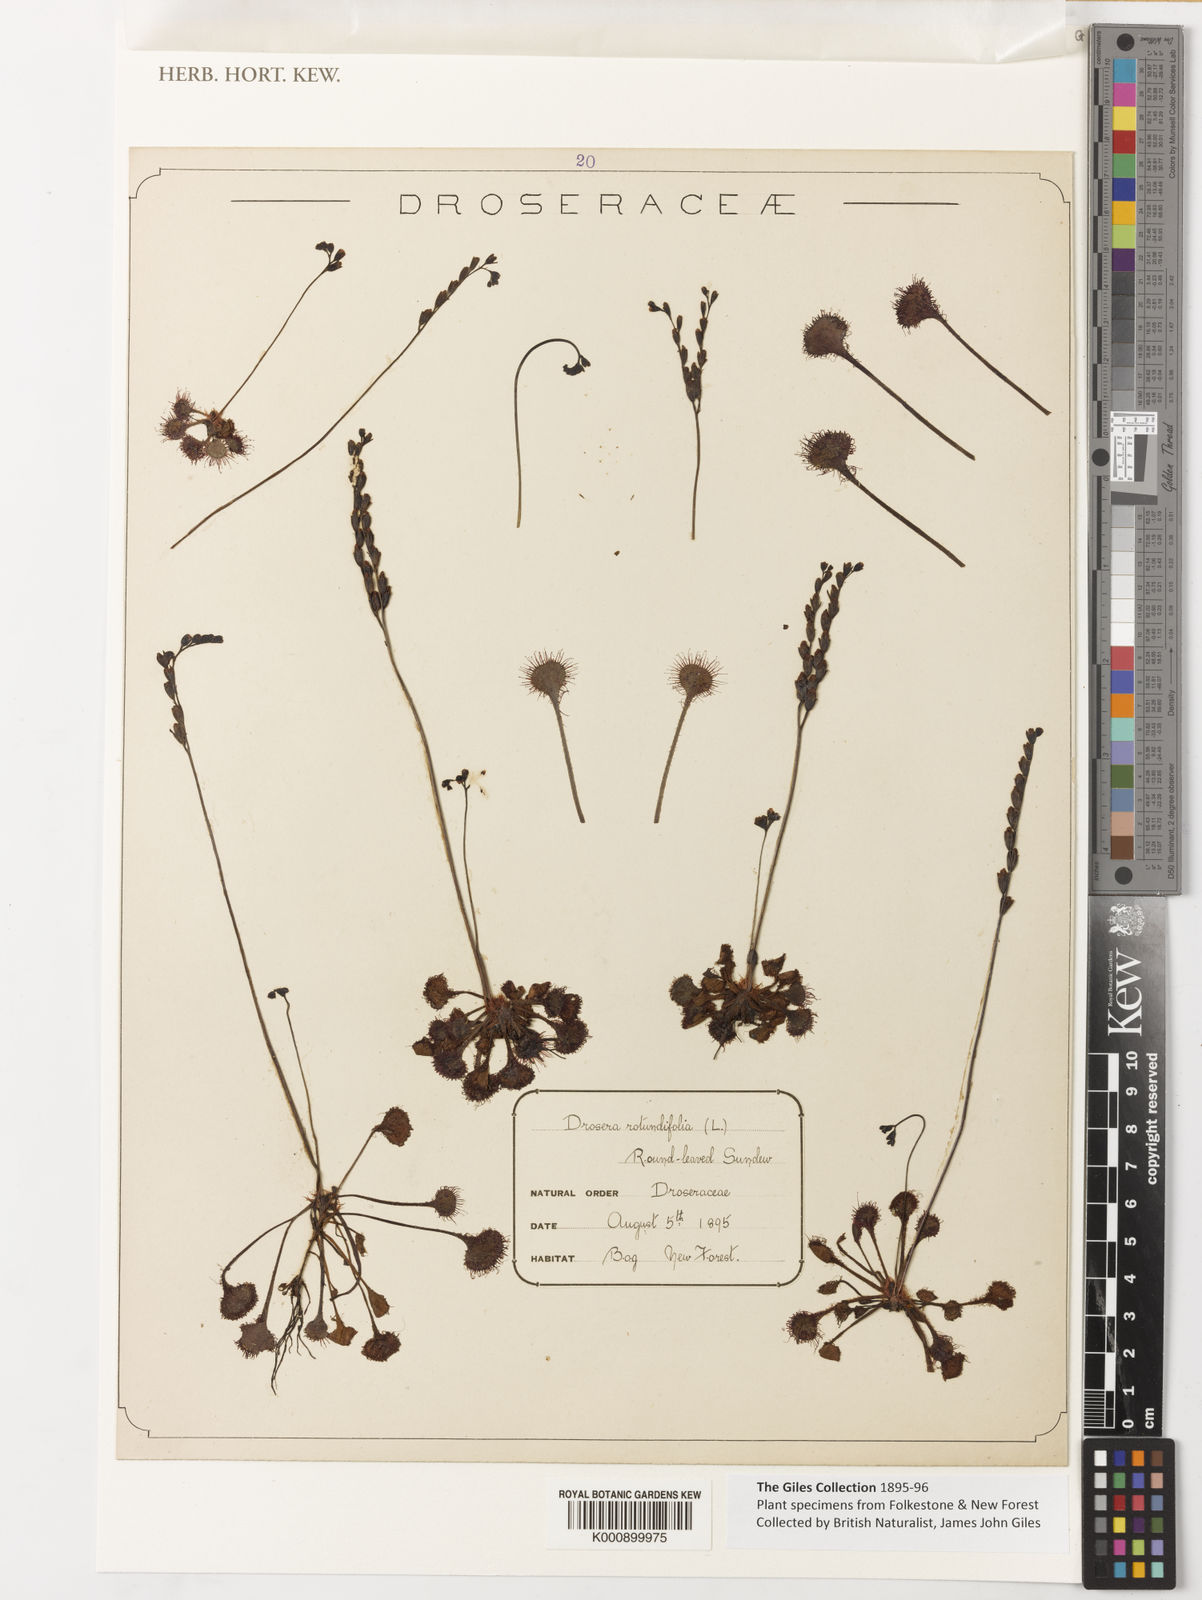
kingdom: Plantae
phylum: Tracheophyta
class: Magnoliopsida
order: Caryophyllales
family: Droseraceae
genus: Drosera
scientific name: Drosera rotundifolia
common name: Round-leaved sundew
